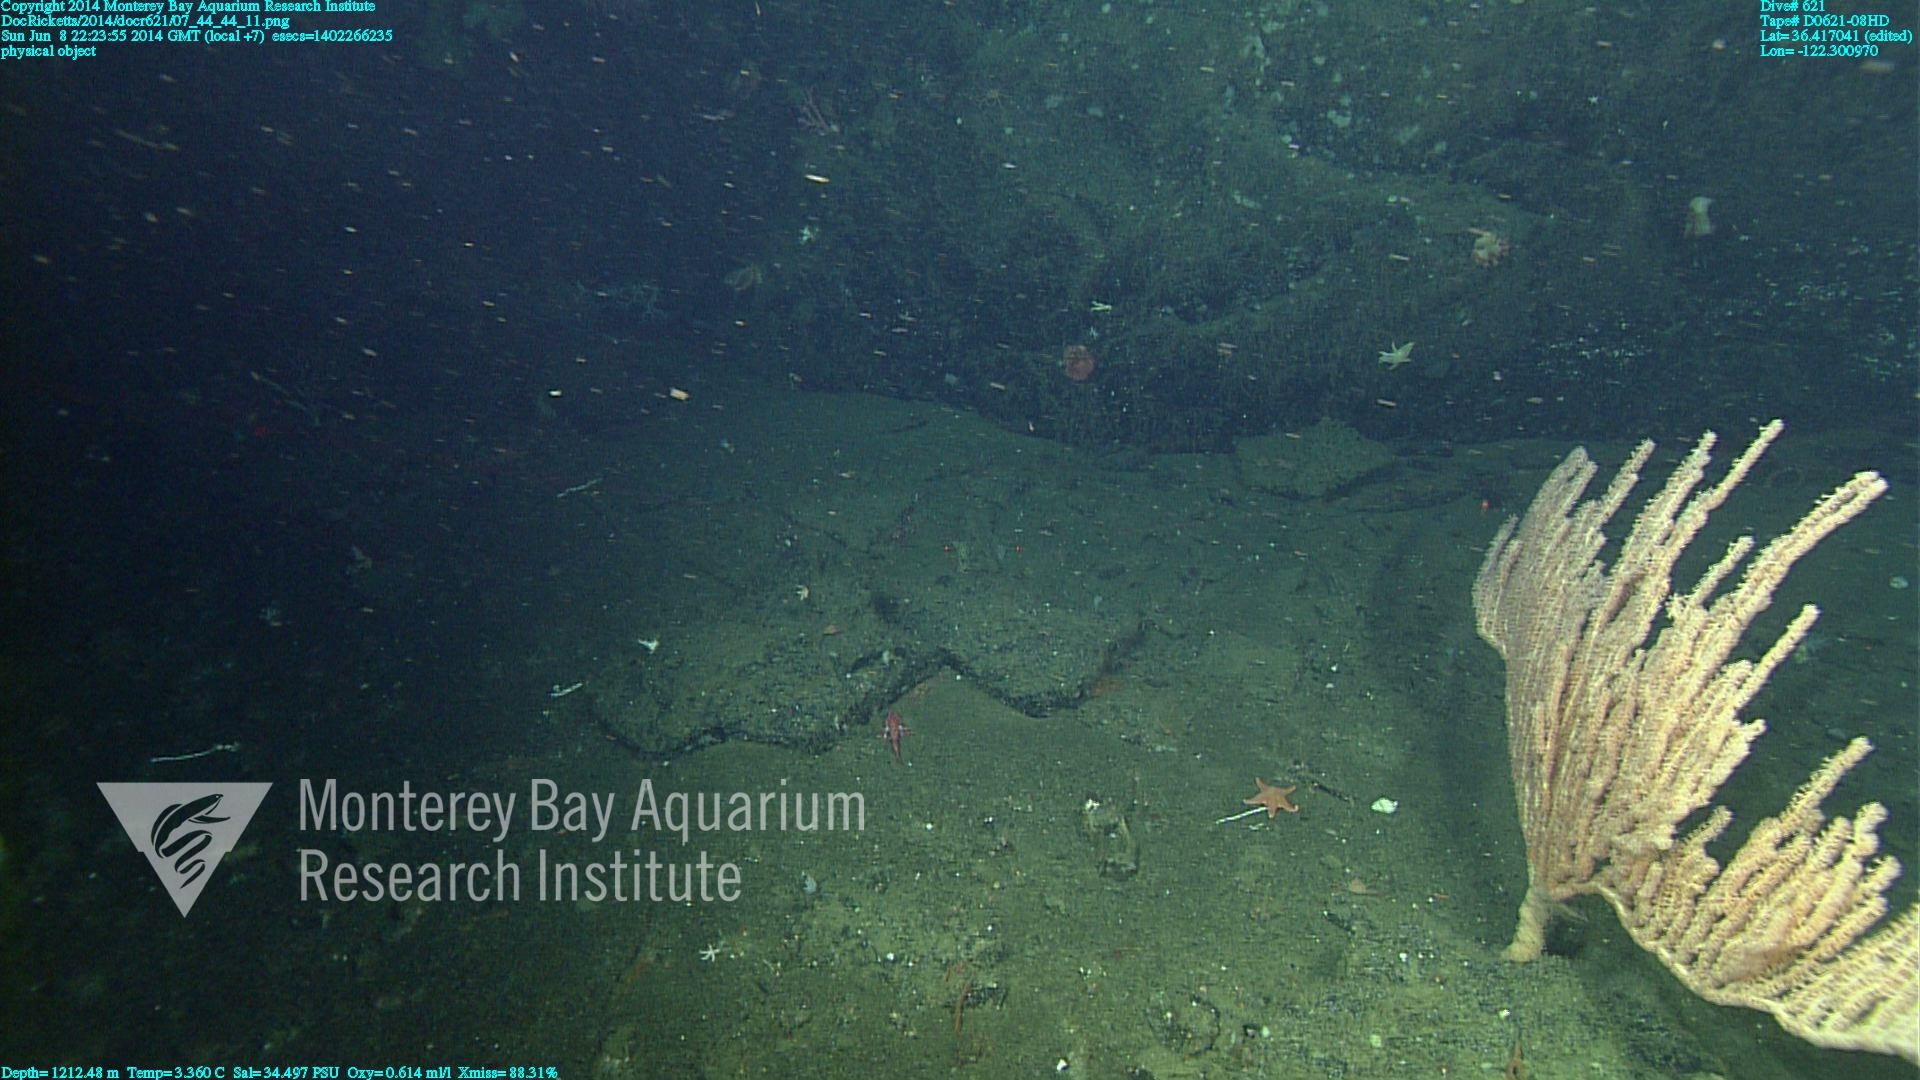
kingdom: Animalia
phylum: Cnidaria
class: Anthozoa
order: Scleralcyonacea
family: Keratoisididae
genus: Isidella
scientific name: Isidella tentaculum
